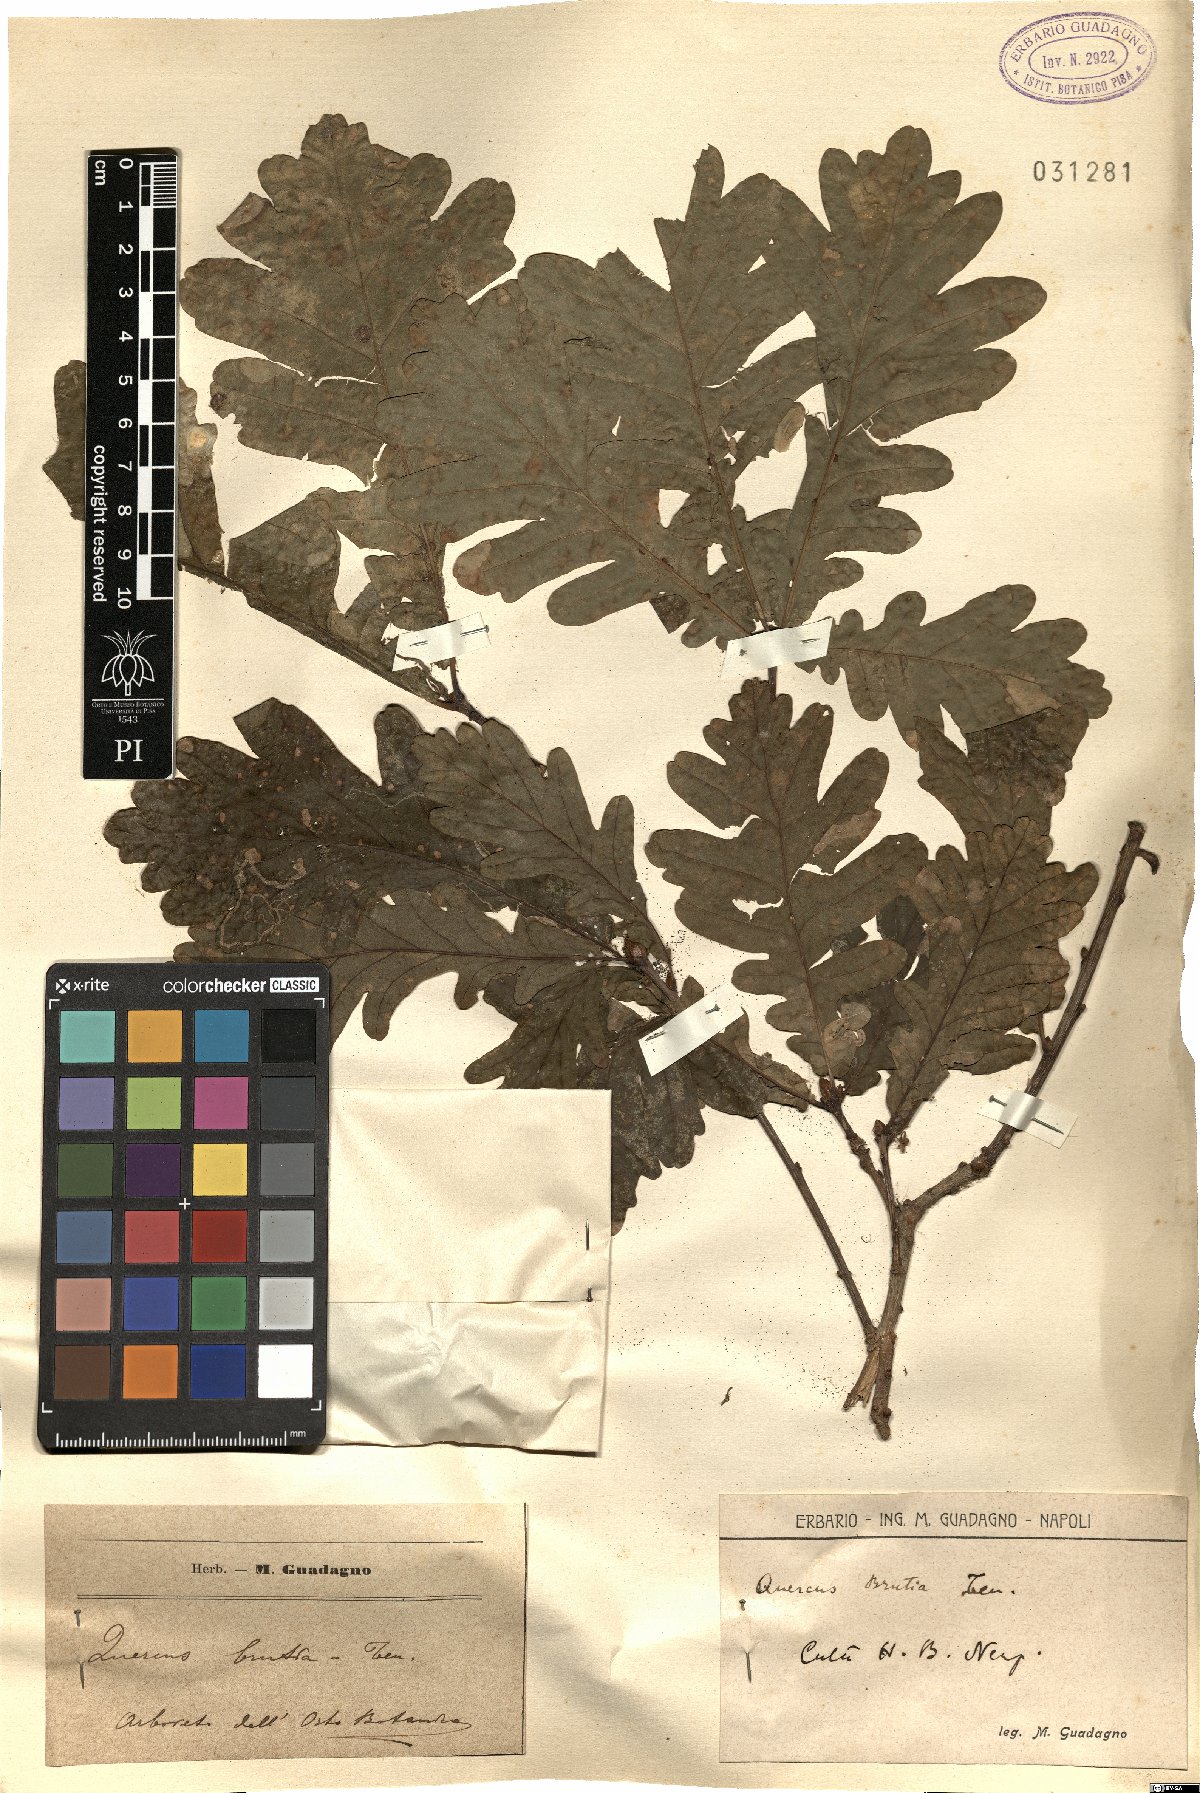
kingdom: Plantae
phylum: Tracheophyta
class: Magnoliopsida
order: Fagales
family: Fagaceae
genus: Quercus
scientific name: Quercus robur
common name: Pedunculate oak
